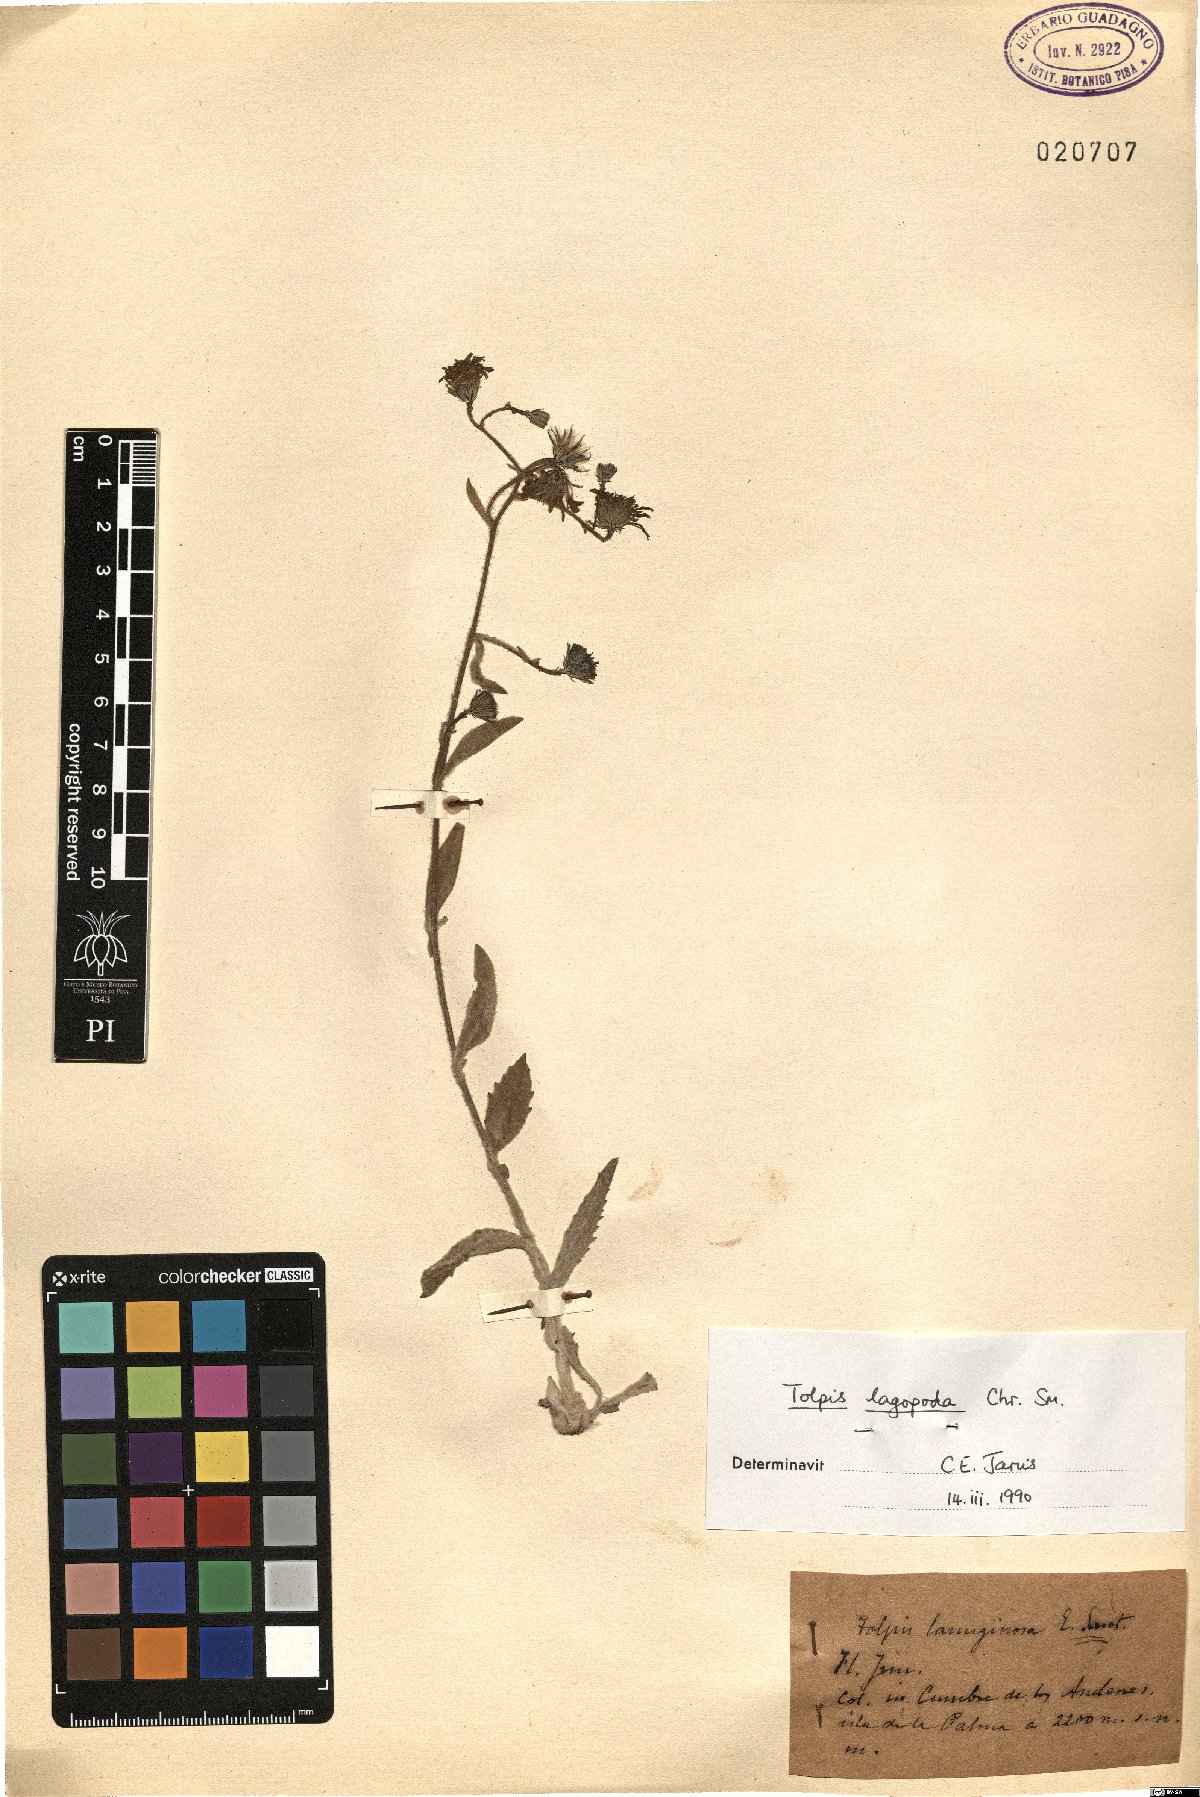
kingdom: Plantae
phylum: Tracheophyta
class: Magnoliopsida
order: Asterales
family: Asteraceae
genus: Tolpis
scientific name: Tolpis lagopoda
